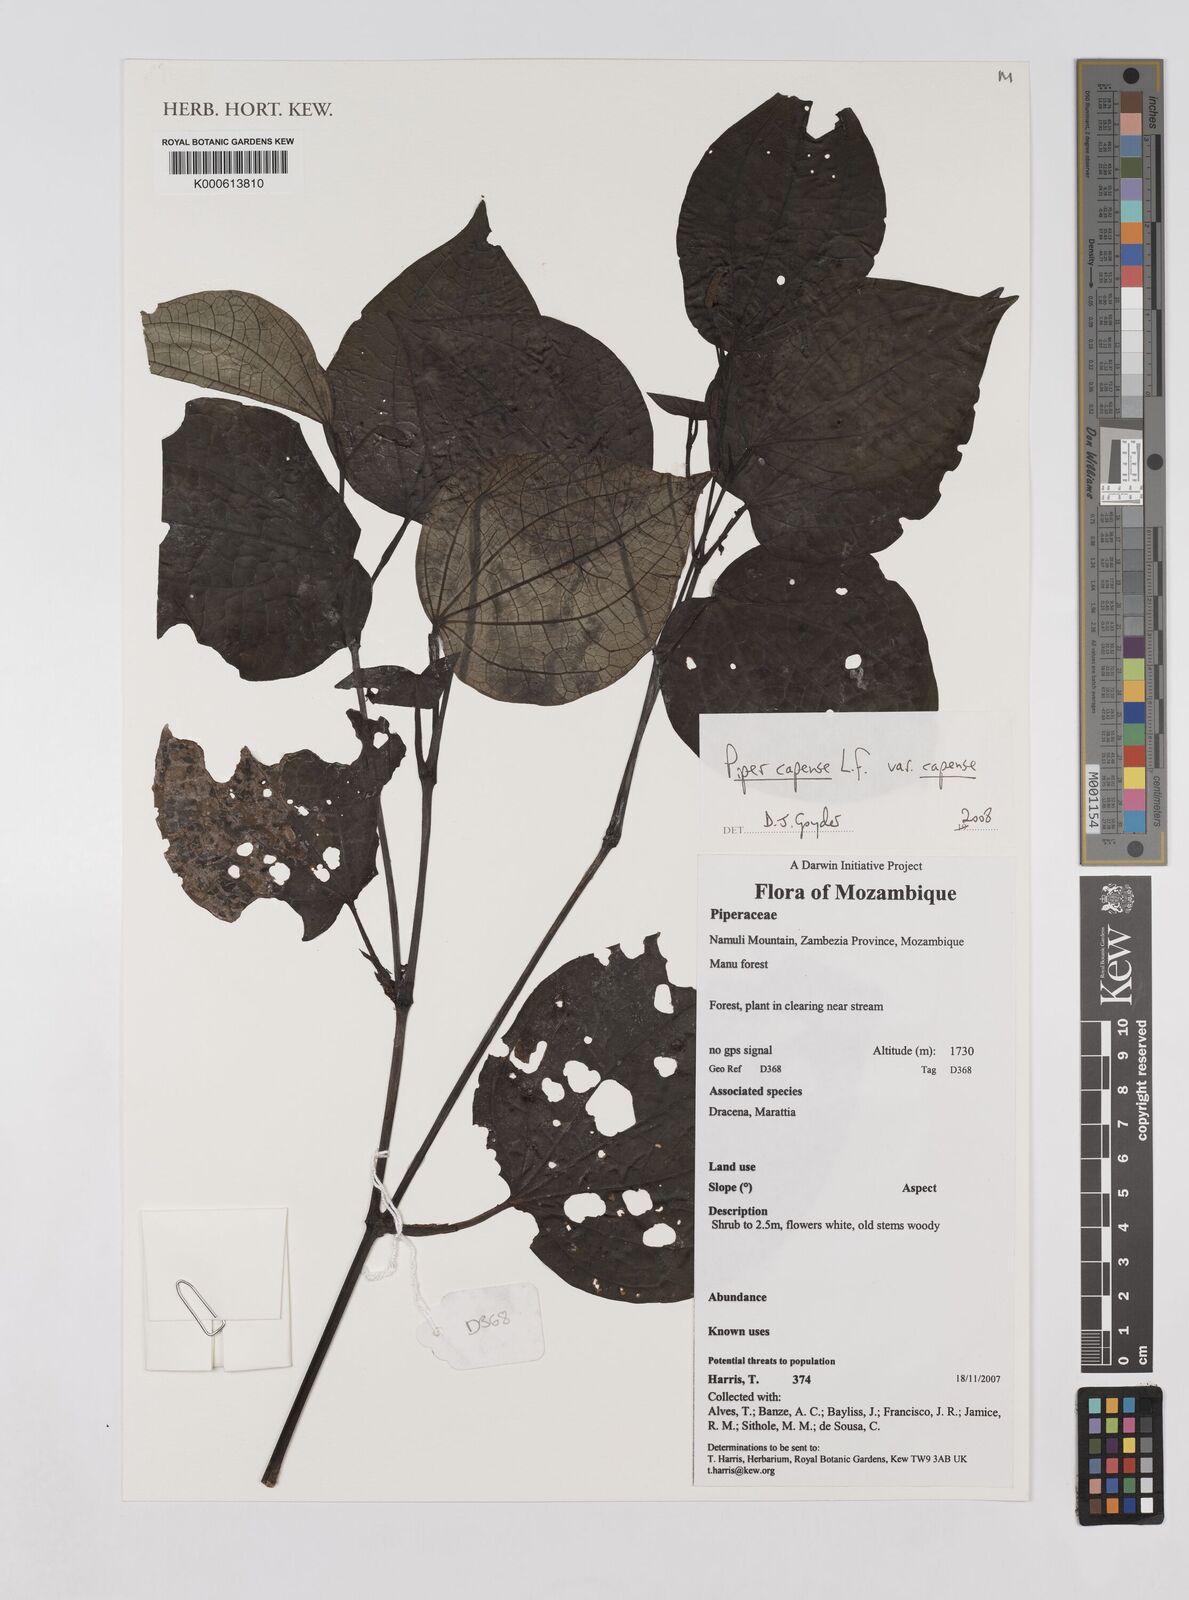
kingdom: Plantae
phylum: Tracheophyta
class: Magnoliopsida
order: Piperales
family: Piperaceae
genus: Piper
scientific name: Piper capense
